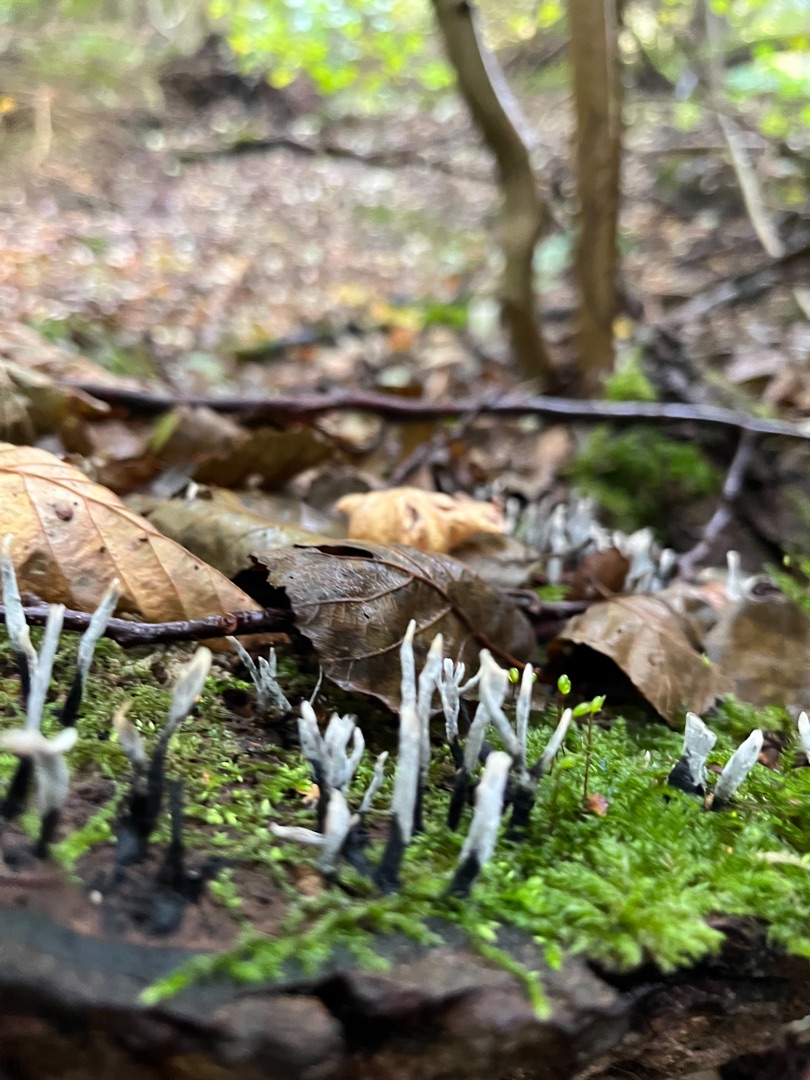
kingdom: Fungi
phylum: Ascomycota
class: Sordariomycetes
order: Xylariales
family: Xylariaceae
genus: Xylaria
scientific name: Xylaria hypoxylon
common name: Grenet stødsvamp
